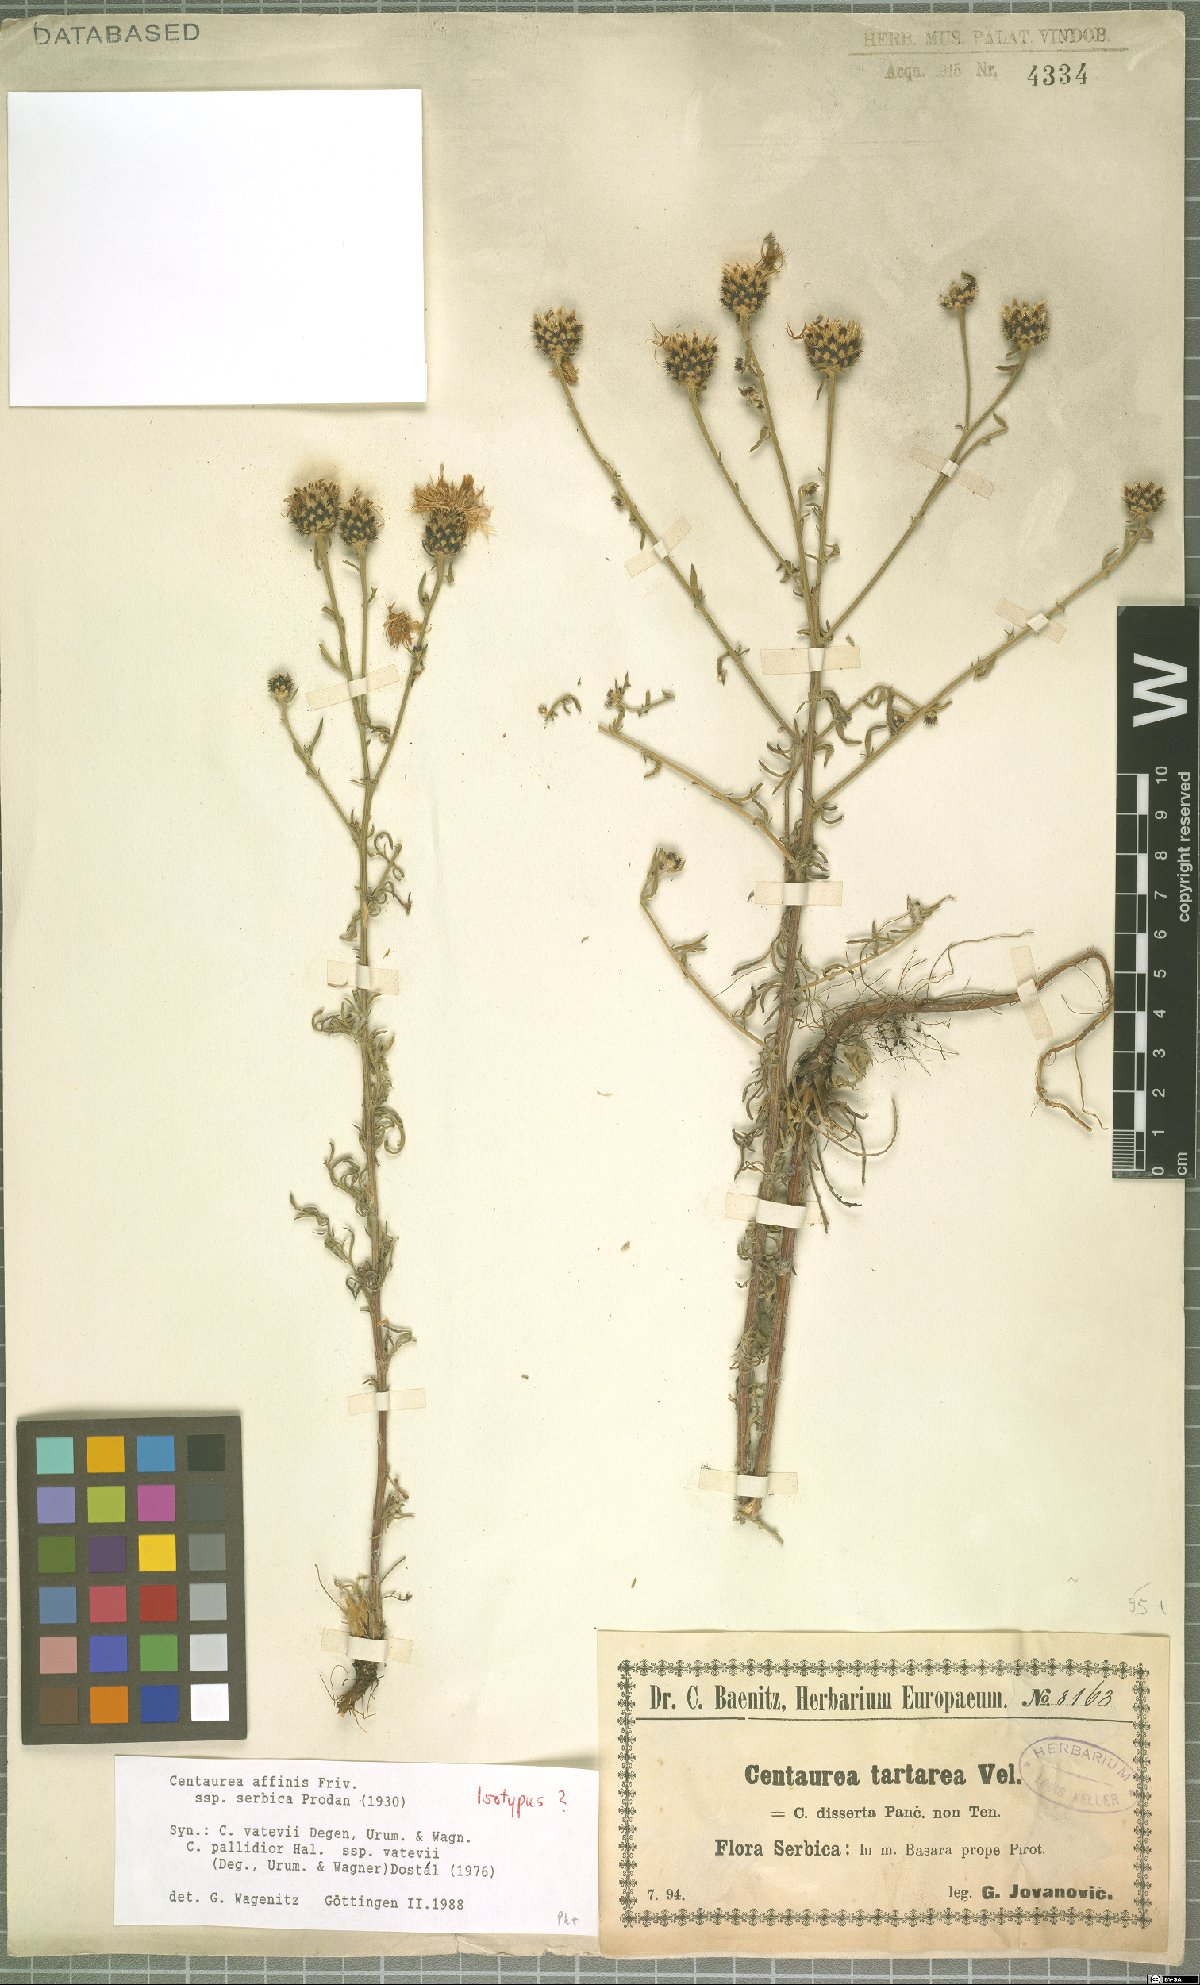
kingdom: Plantae
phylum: Tracheophyta
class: Magnoliopsida
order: Asterales
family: Asteraceae
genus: Centaurea
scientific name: Centaurea stoebe
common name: Spotted knapweed
